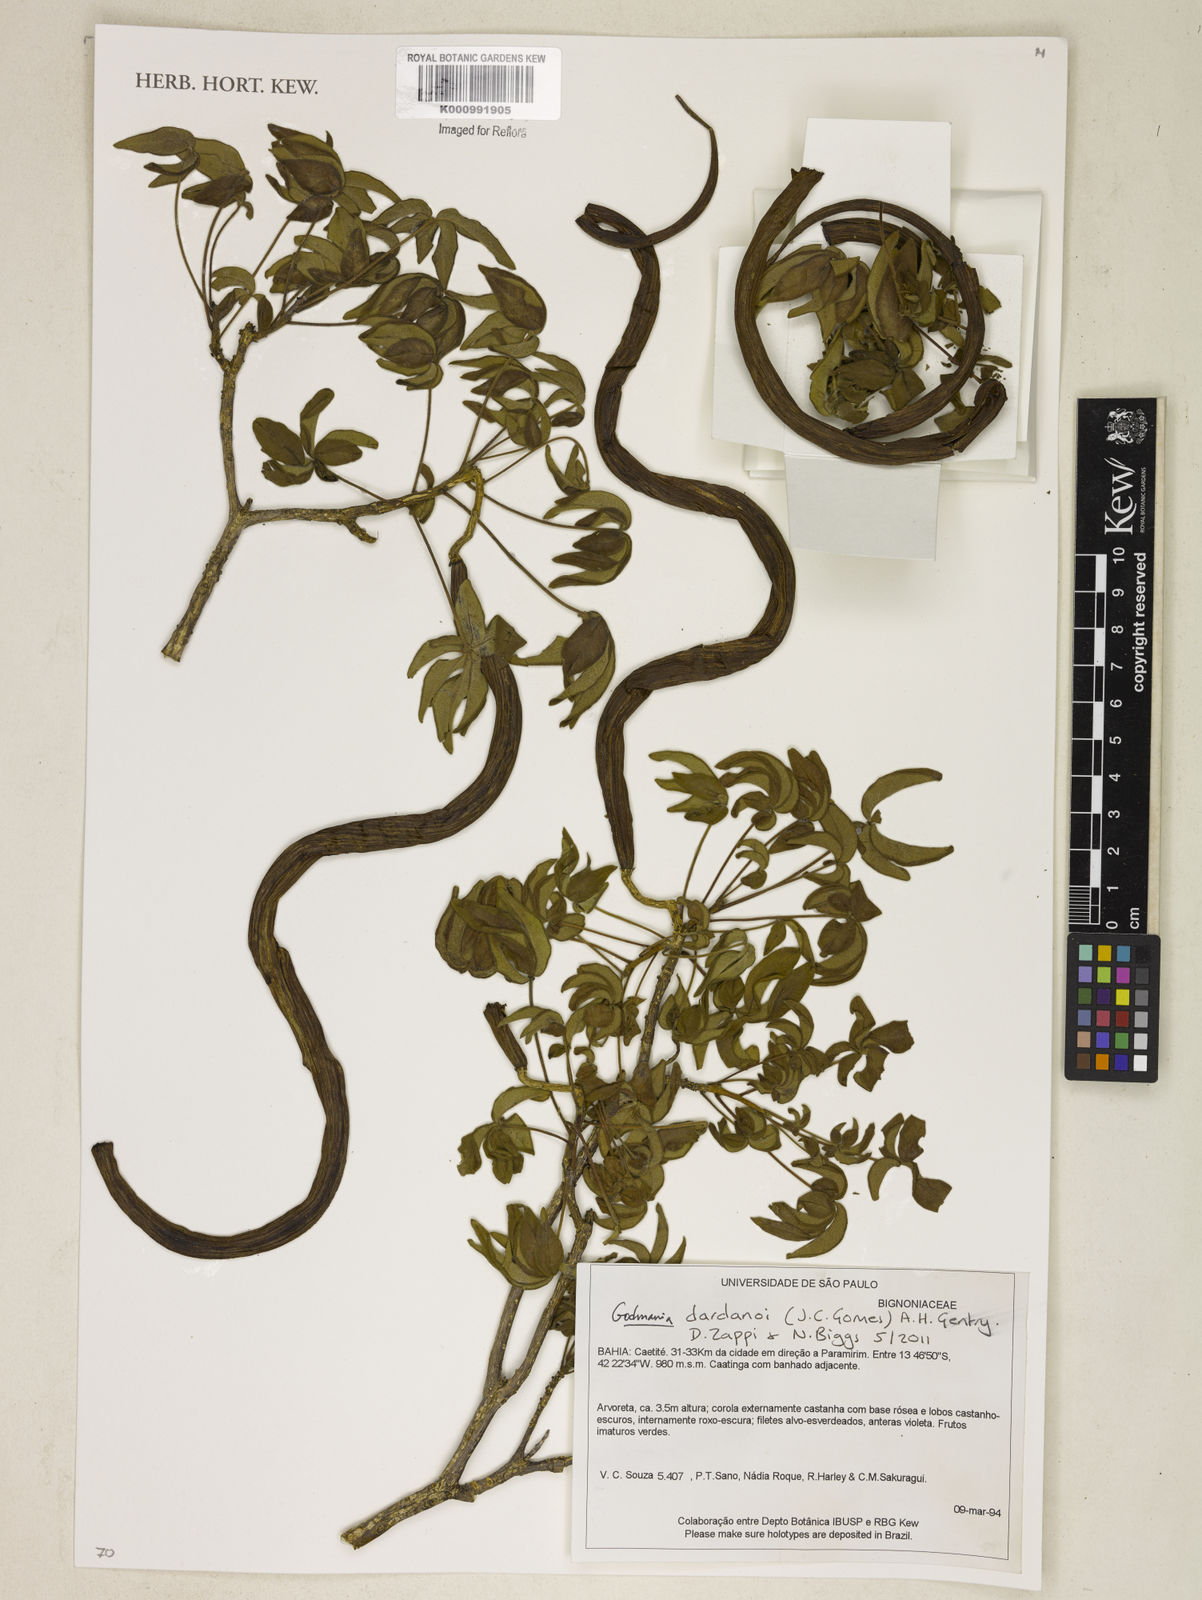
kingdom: Plantae
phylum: Tracheophyta
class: Magnoliopsida
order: Lamiales
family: Bignoniaceae
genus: Godmania
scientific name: Godmania dardanoi
